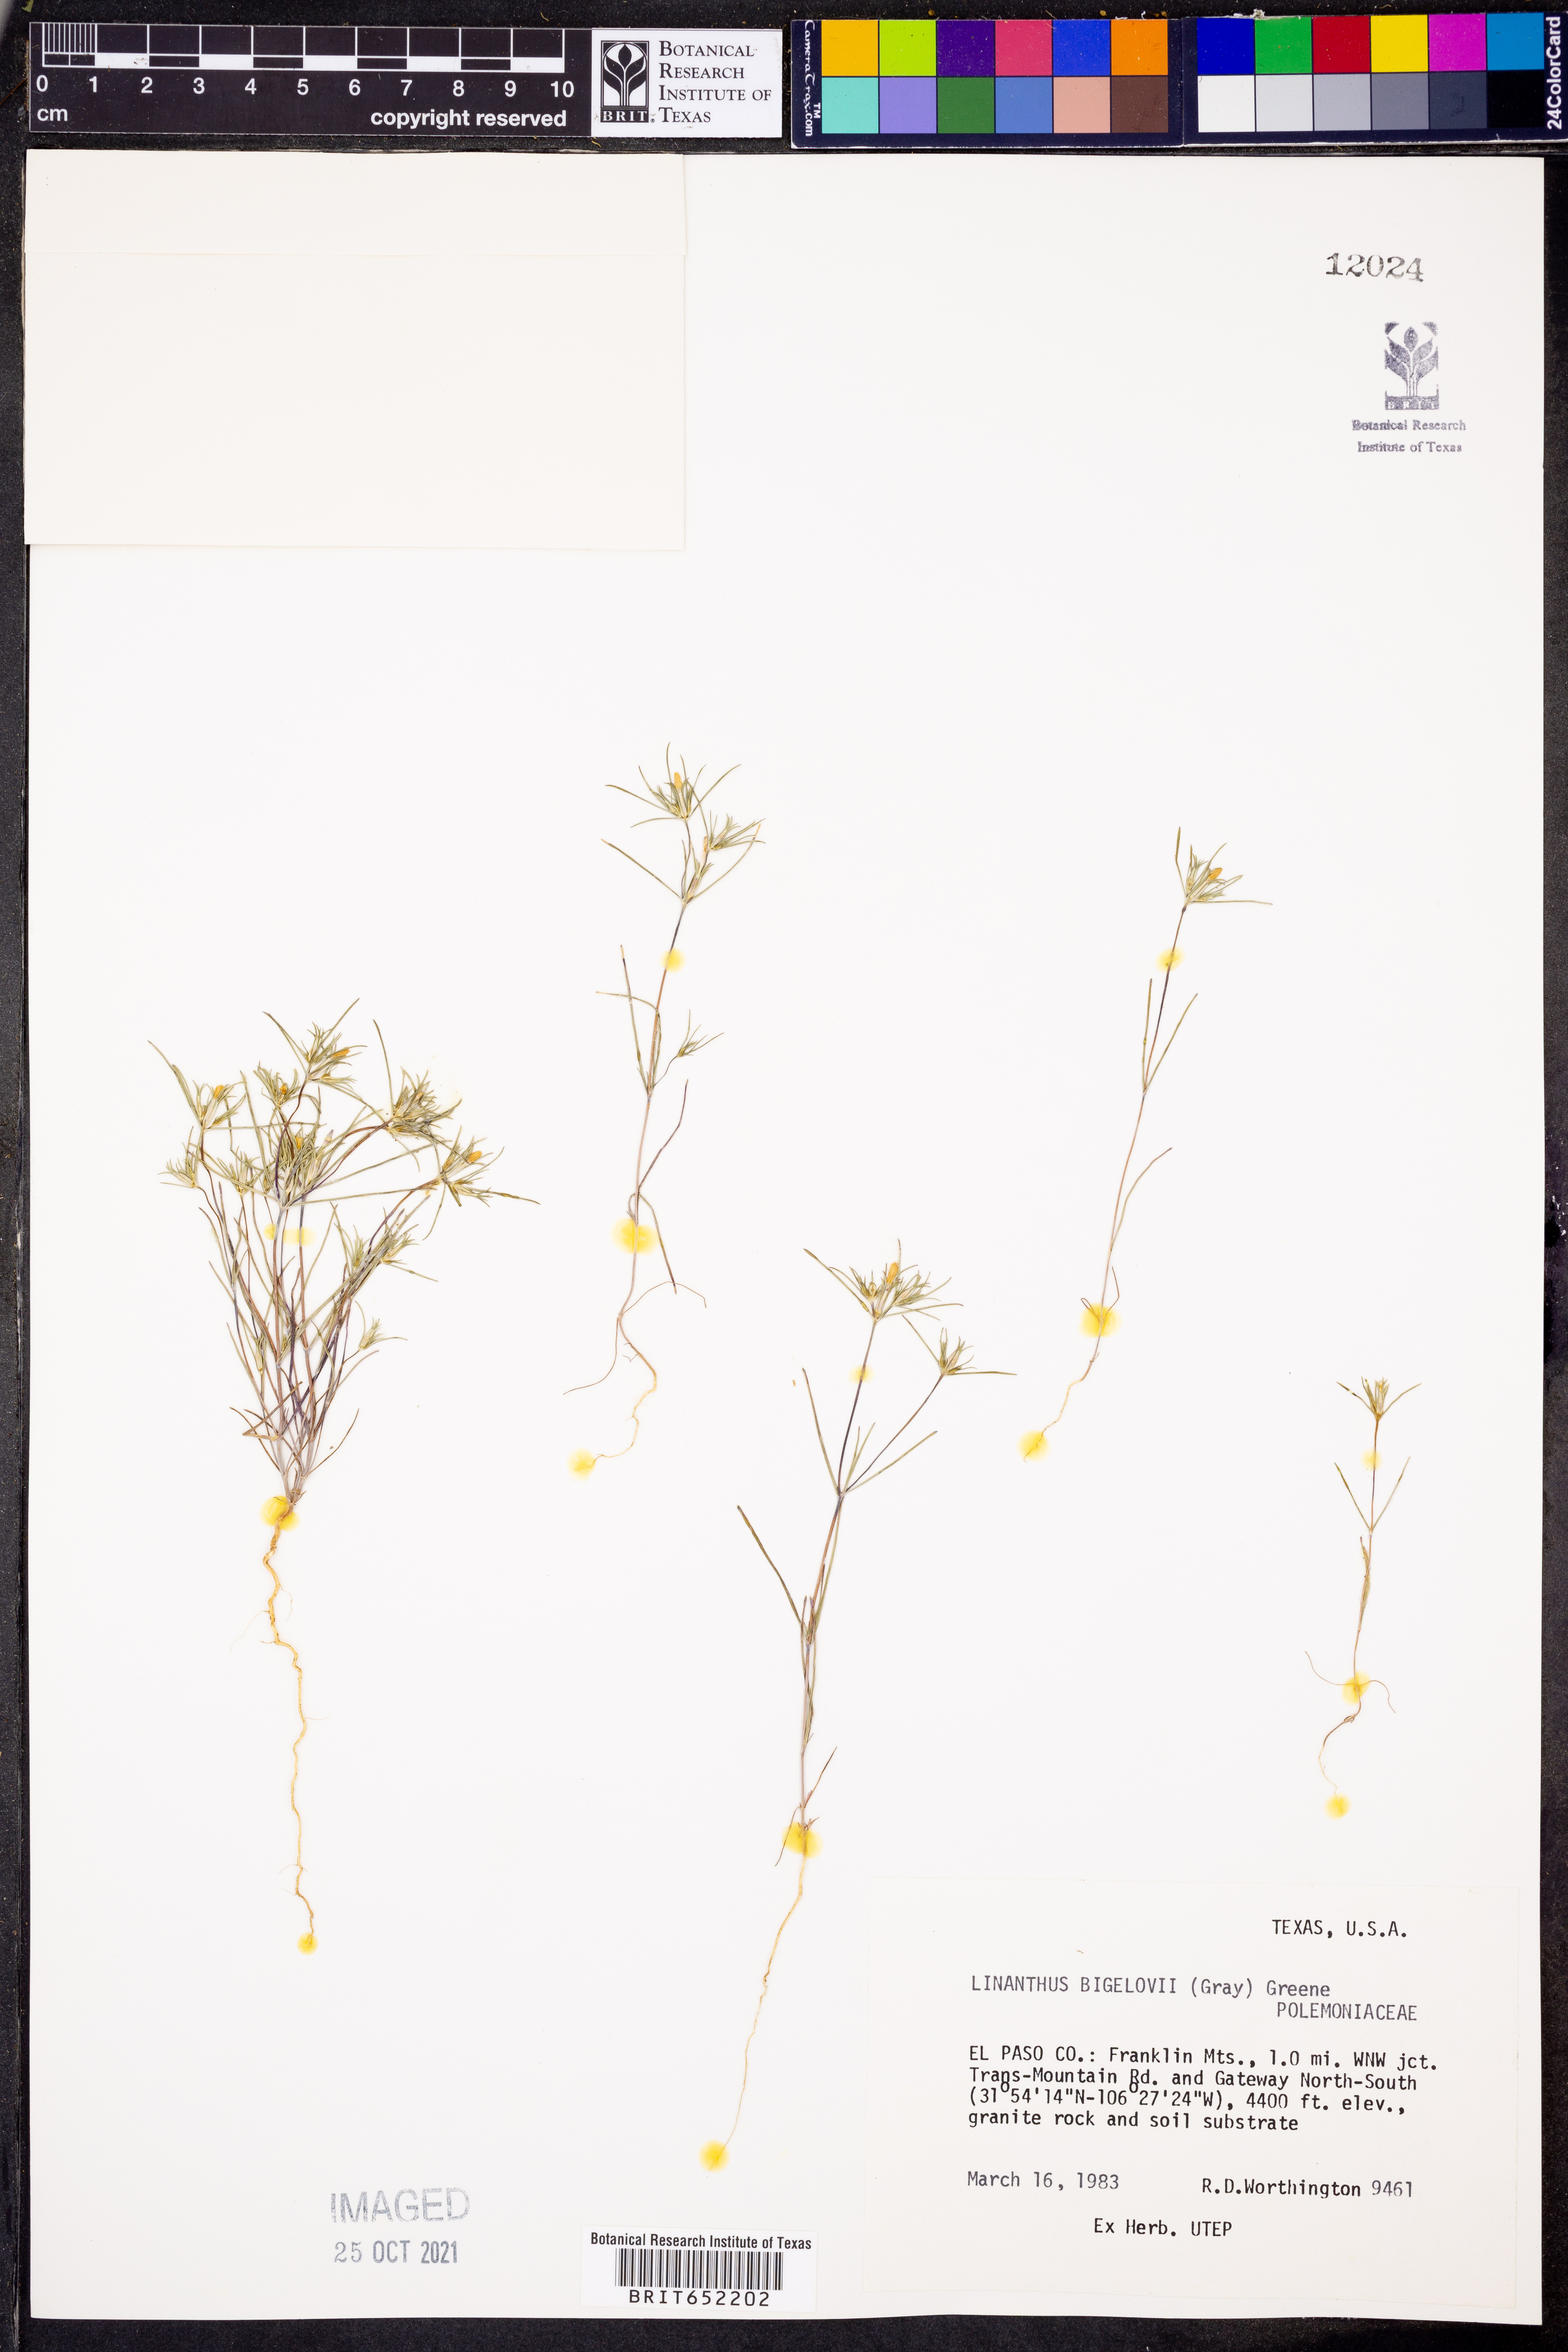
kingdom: Plantae
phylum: Tracheophyta
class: Magnoliopsida
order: Ericales
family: Polemoniaceae
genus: Linanthus
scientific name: Linanthus bigelovii
